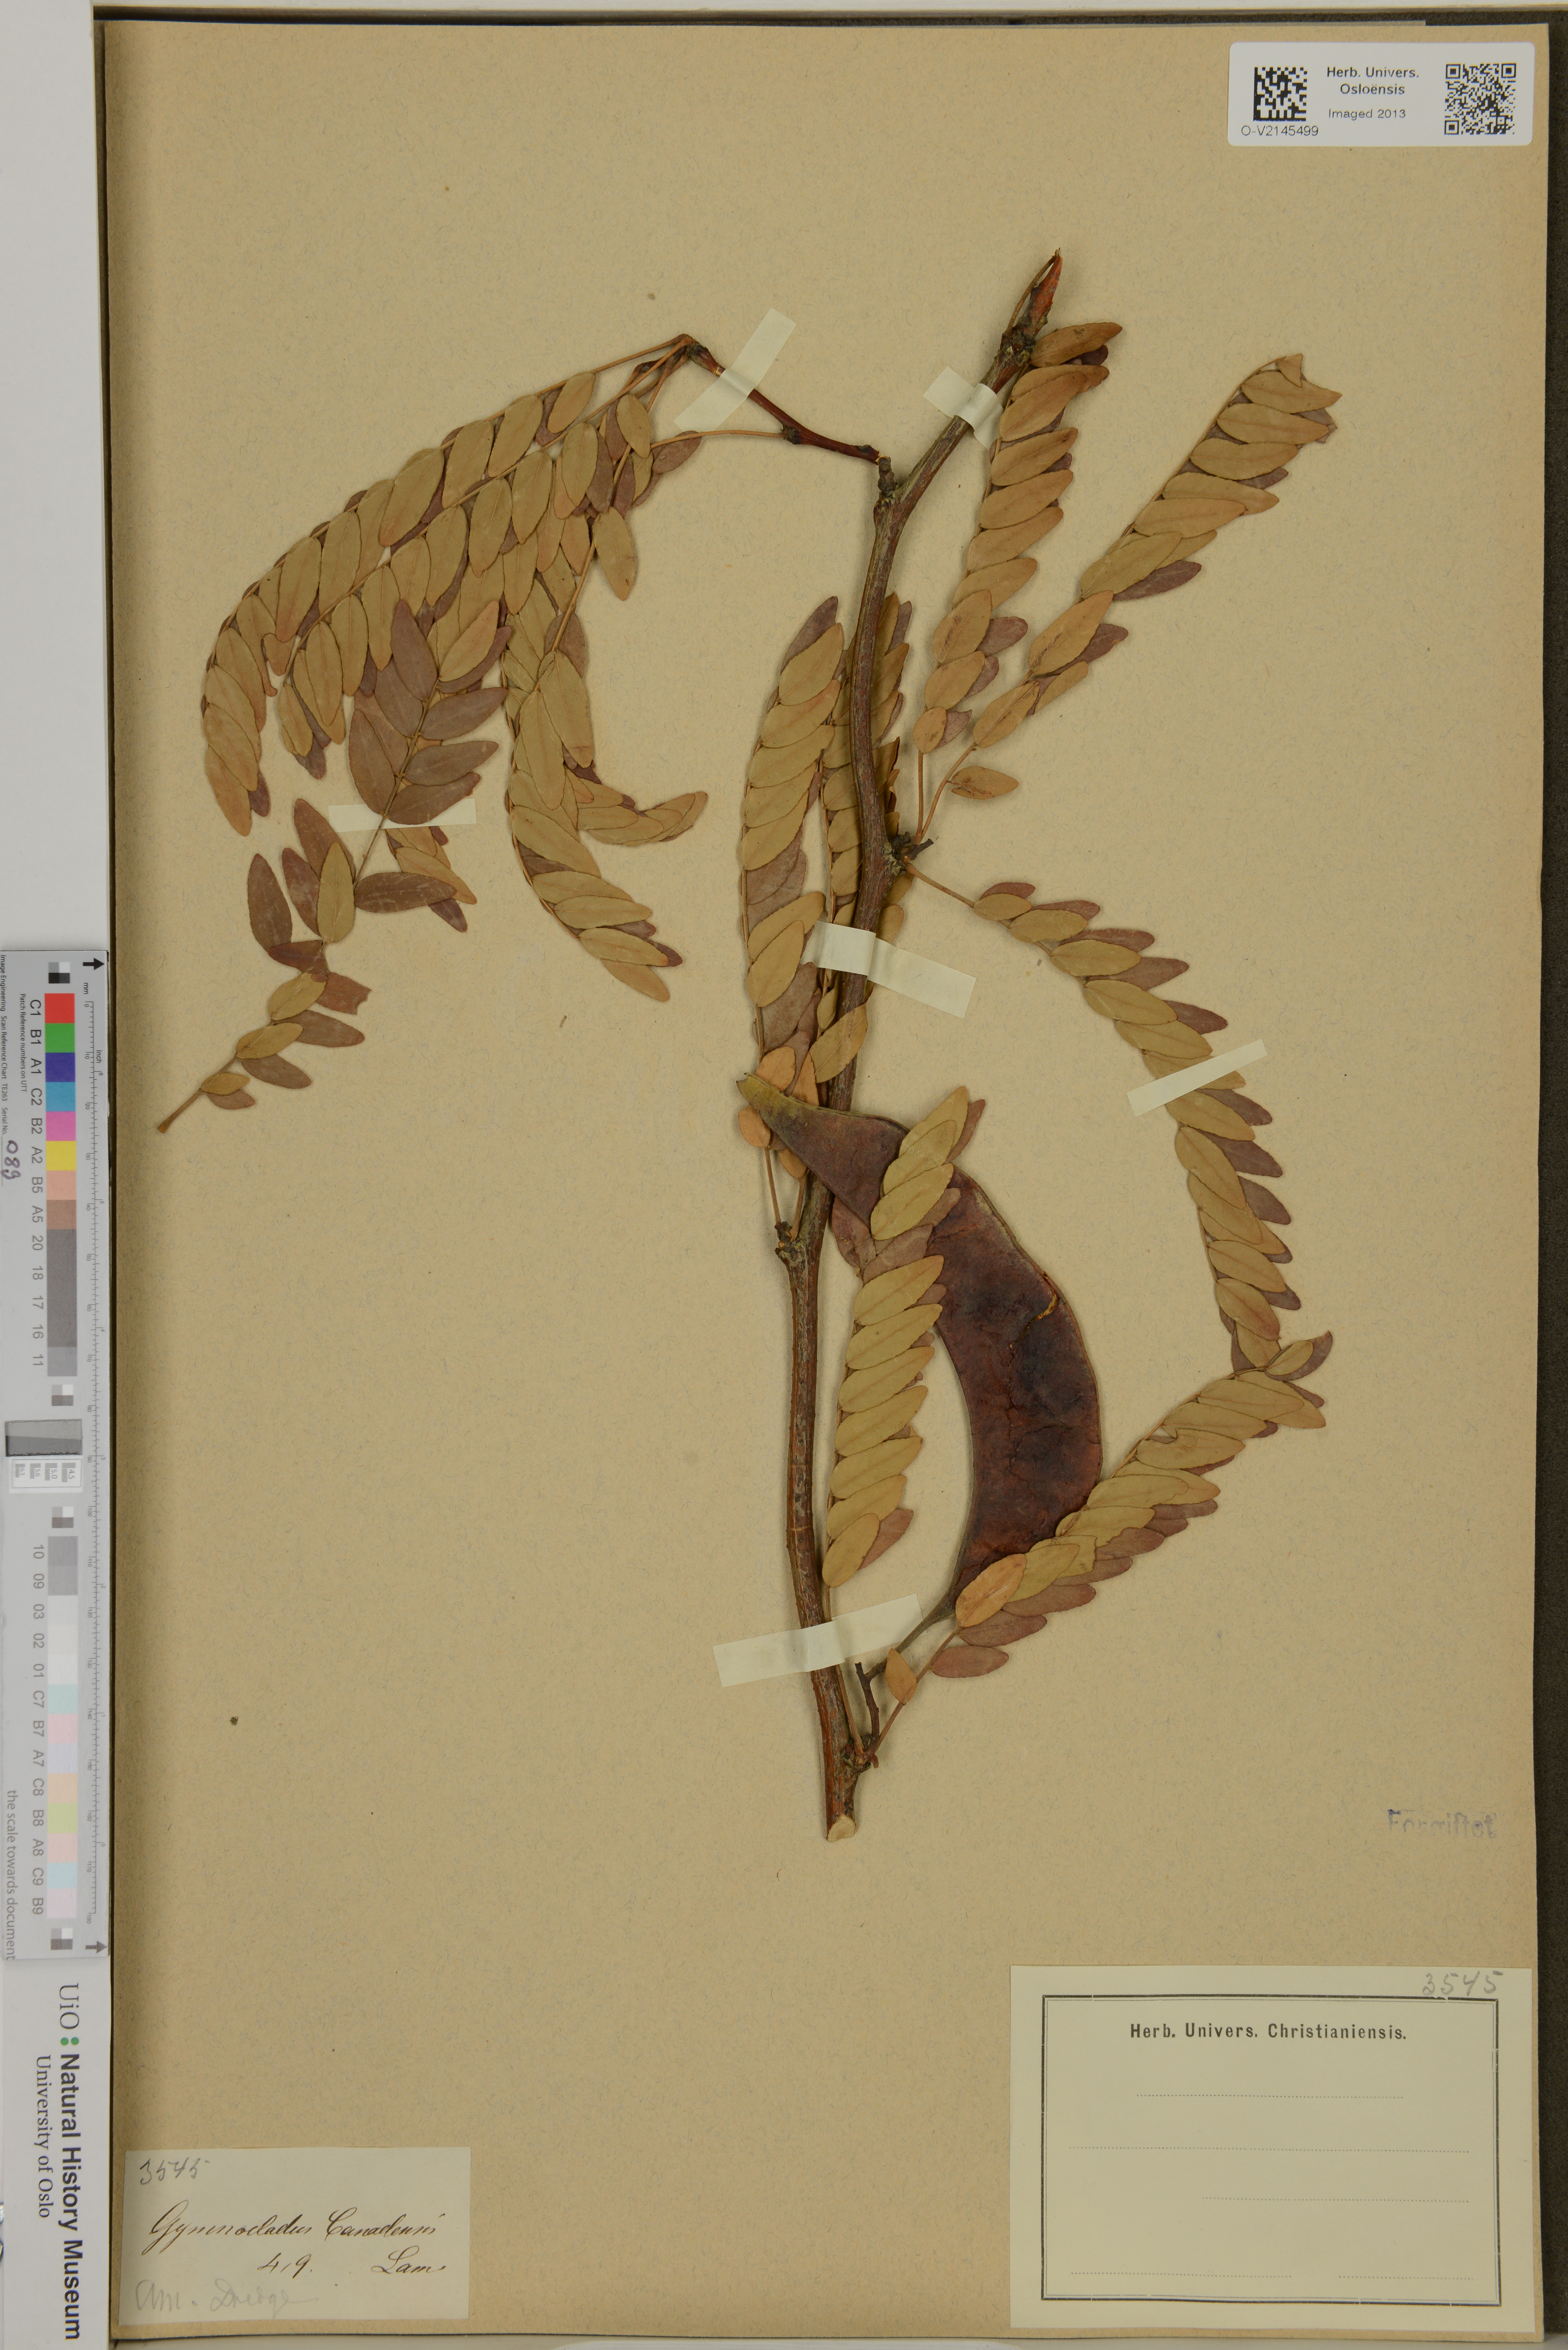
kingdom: Plantae
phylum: Tracheophyta
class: Magnoliopsida
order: Fabales
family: Fabaceae
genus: Gymnocladus
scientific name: Gymnocladus dioicus
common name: Kentucky coffee-tree
